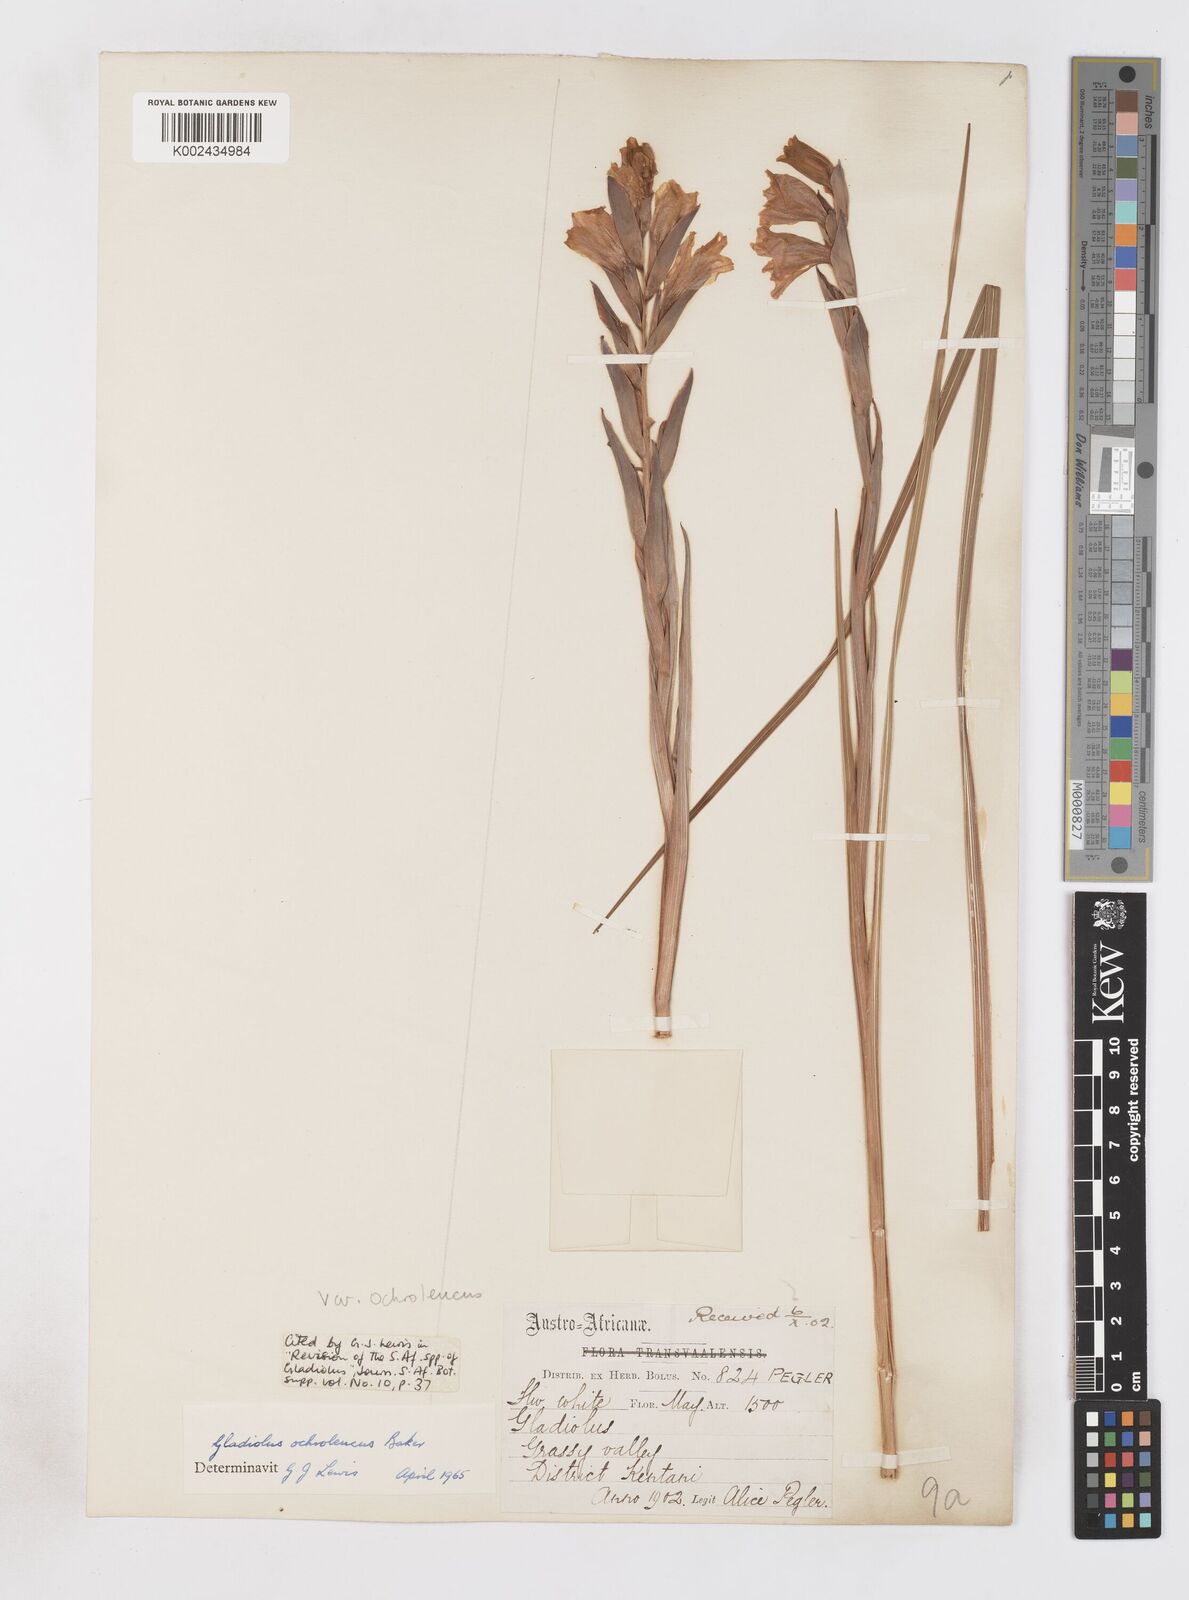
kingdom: Plantae
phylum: Tracheophyta
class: Liliopsida
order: Asparagales
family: Iridaceae
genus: Gladiolus
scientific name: Gladiolus ochroleucus
